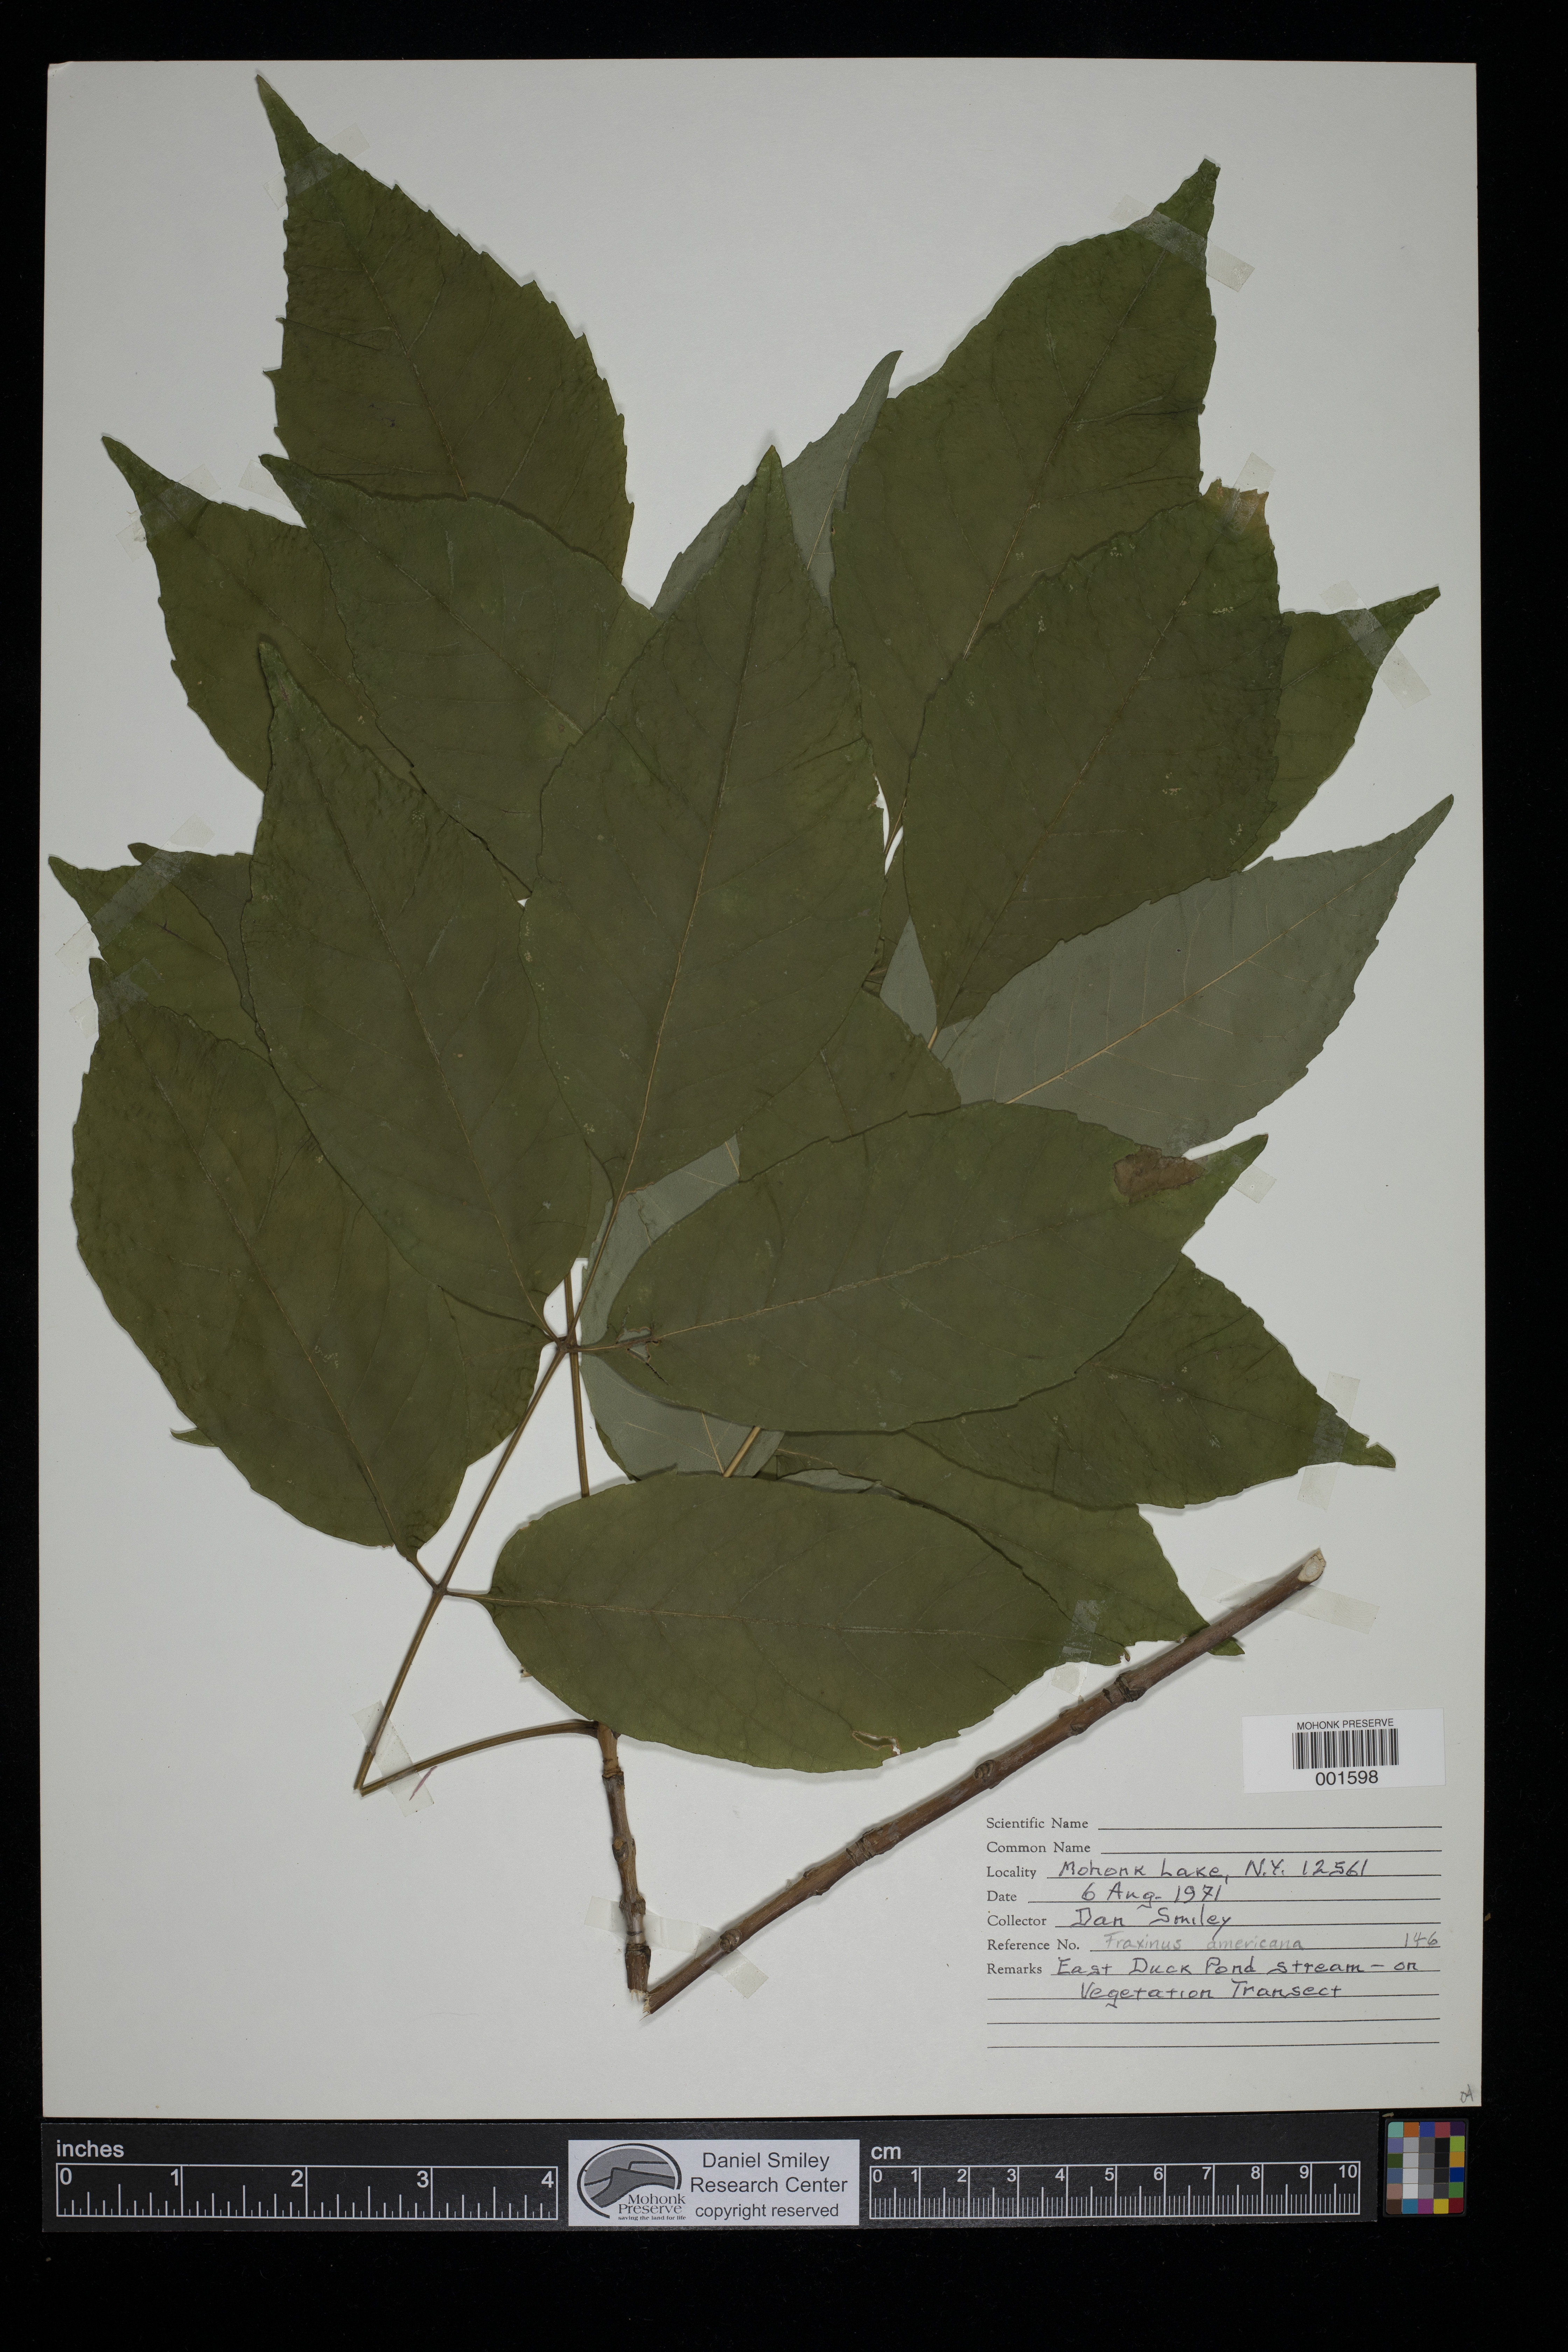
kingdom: Plantae
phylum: Tracheophyta
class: Magnoliopsida
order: Lamiales
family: Oleaceae
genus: Fraxinus
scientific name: Fraxinus americana
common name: White ash
